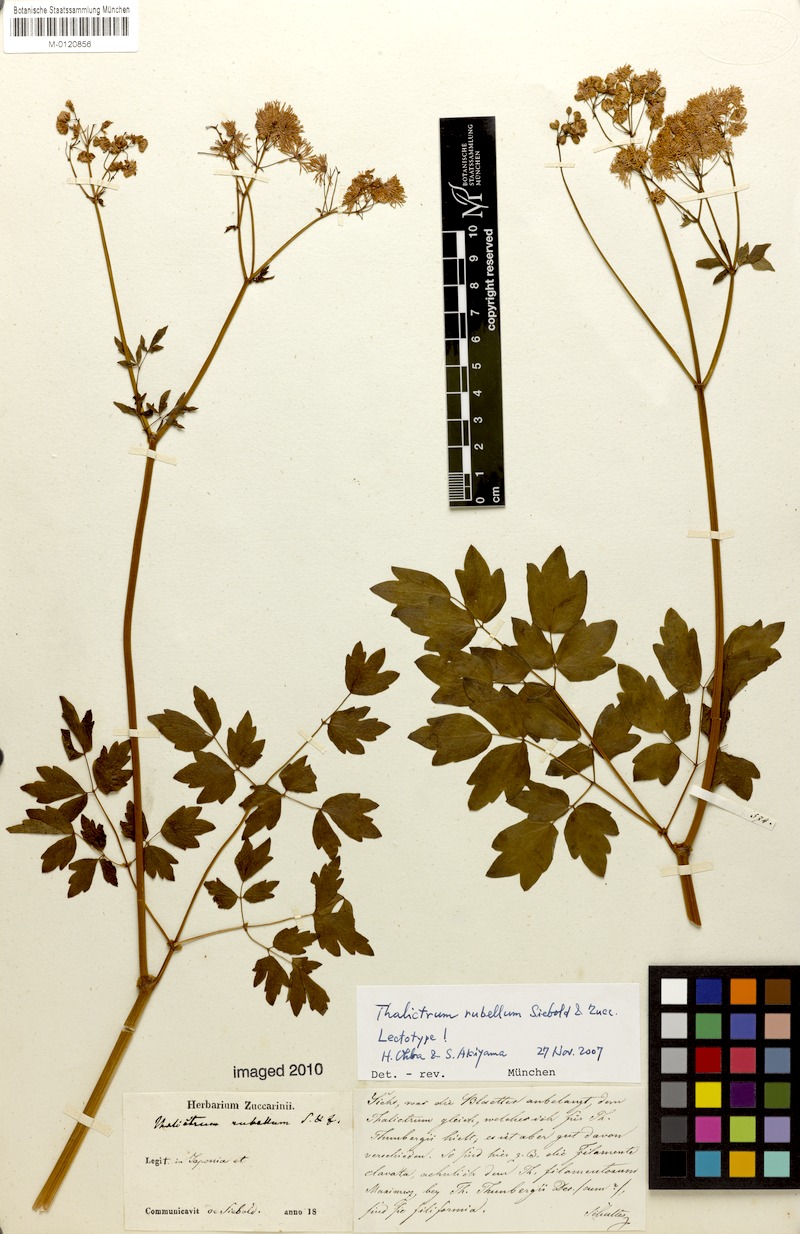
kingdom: Plantae
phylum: Tracheophyta
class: Magnoliopsida
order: Ranunculales
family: Ranunculaceae
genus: Thalictrum
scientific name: Thalictrum aquilegiifolium
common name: French meadow-rue
